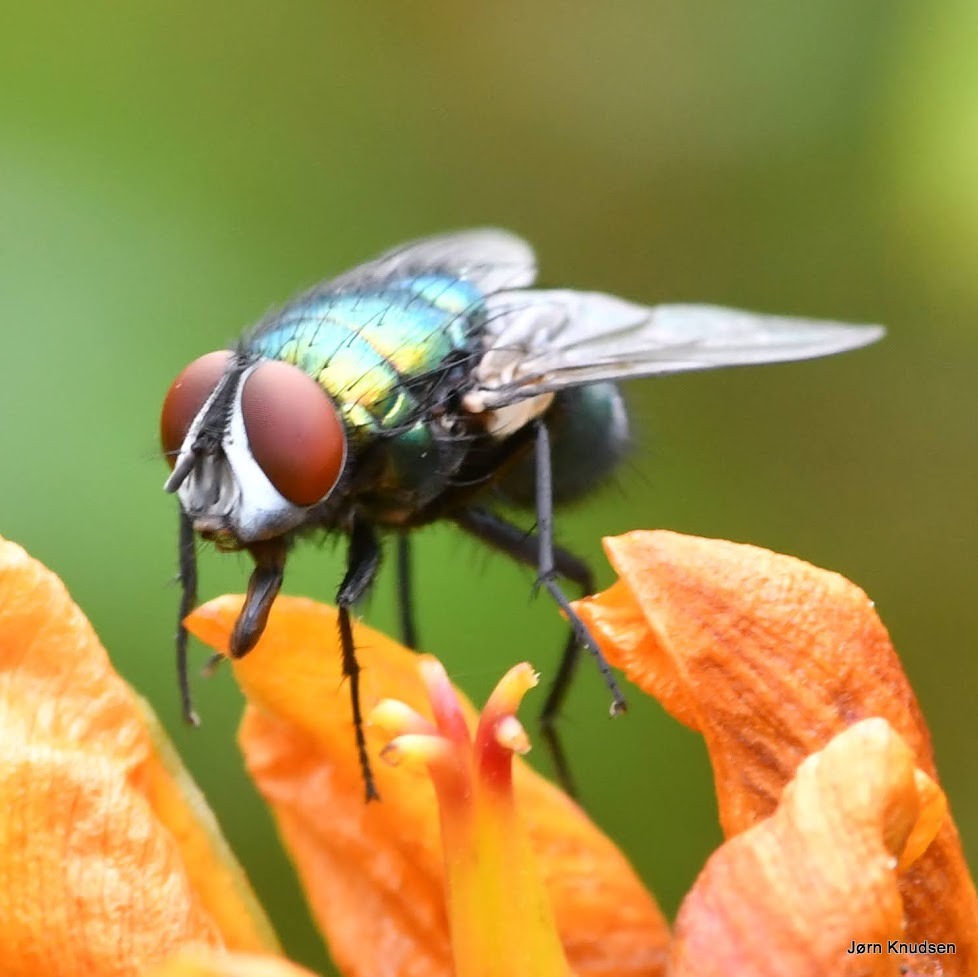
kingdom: Animalia
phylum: Arthropoda
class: Insecta
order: Diptera
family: Calliphoridae
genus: Lucilia
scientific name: Lucilia sericata
